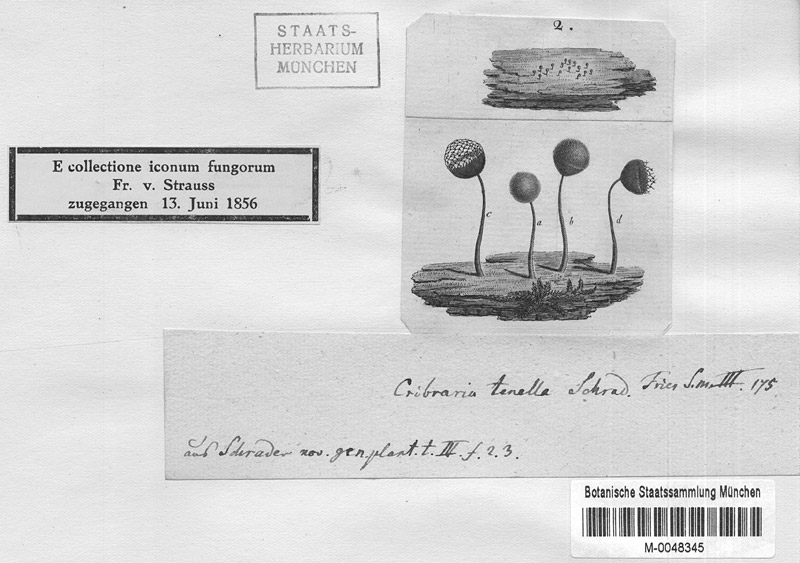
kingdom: Protozoa
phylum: Mycetozoa
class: Myxomycetes
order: Cribrariales
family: Cribrariaceae
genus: Cribraria
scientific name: Cribraria tenella
